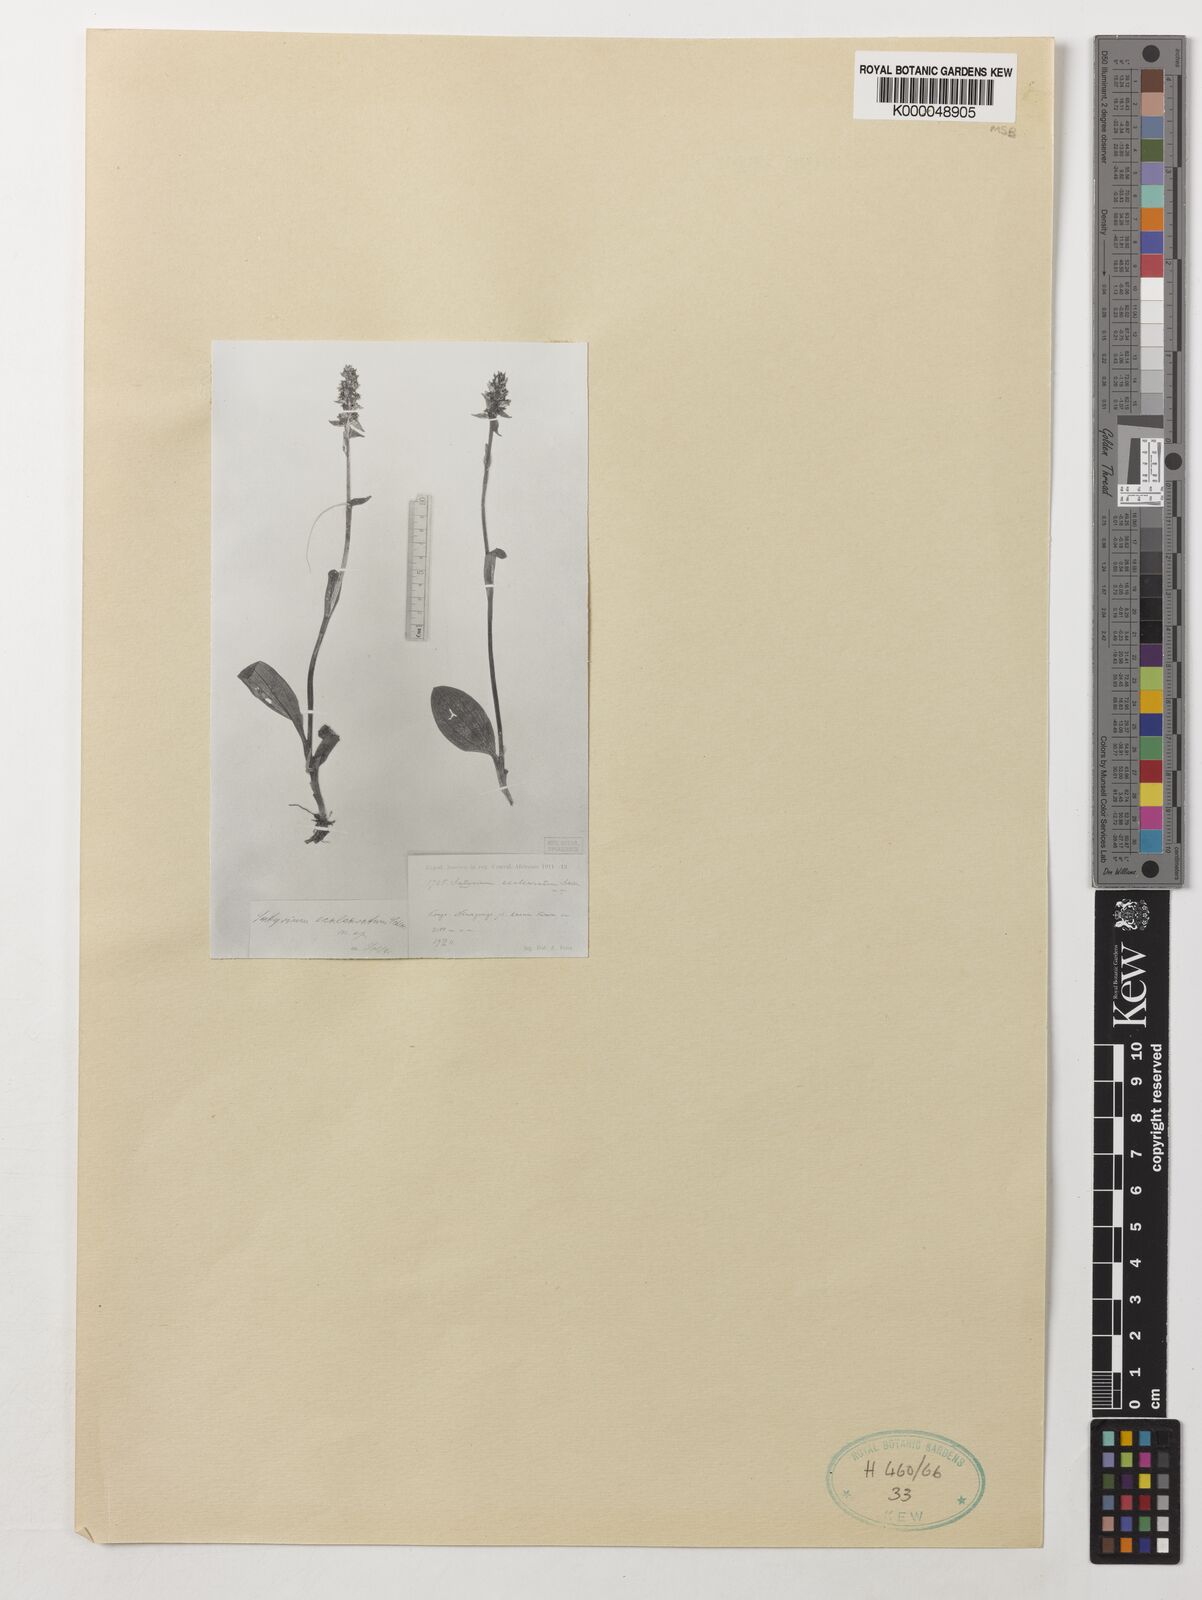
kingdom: Plantae
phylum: Tracheophyta
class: Liliopsida
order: Asparagales
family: Orchidaceae
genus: Satyrium
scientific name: Satyrium ecalcaratum
